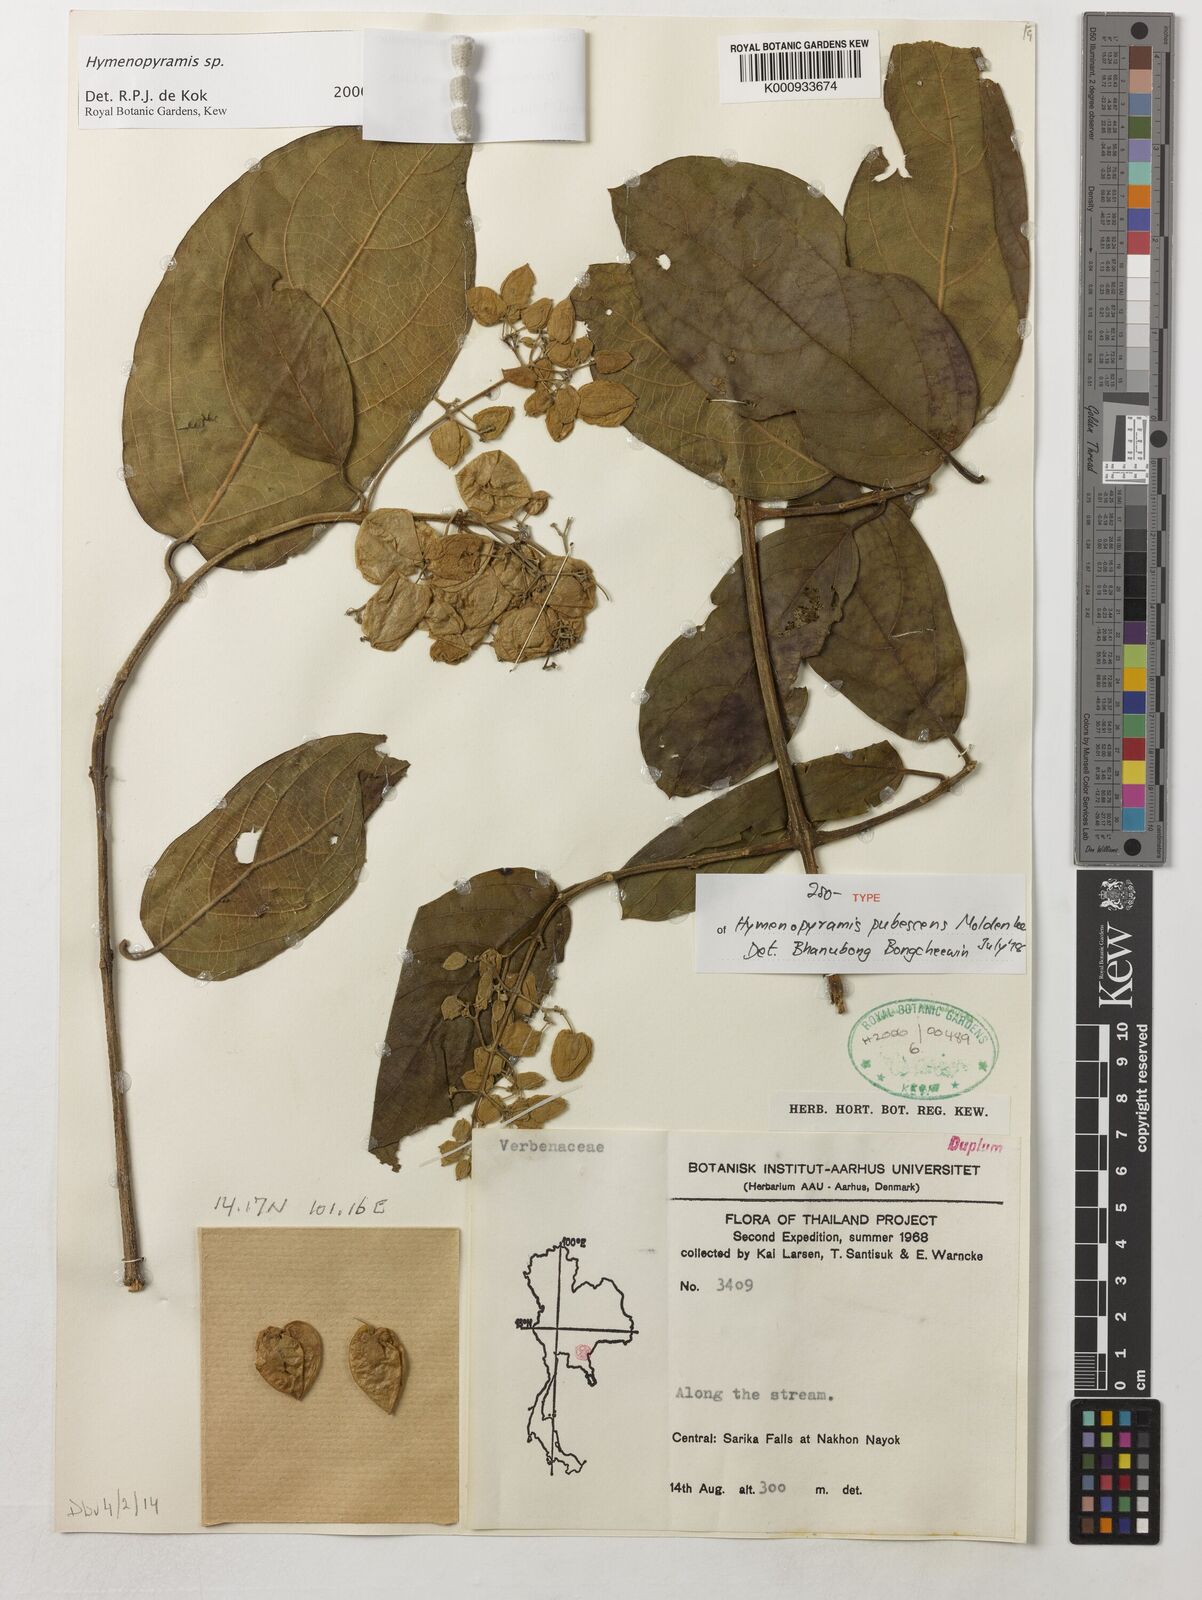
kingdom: Plantae
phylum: Tracheophyta
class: Magnoliopsida
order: Lamiales
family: Lamiaceae
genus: Hymenopyramis
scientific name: Hymenopyramis pubescens
